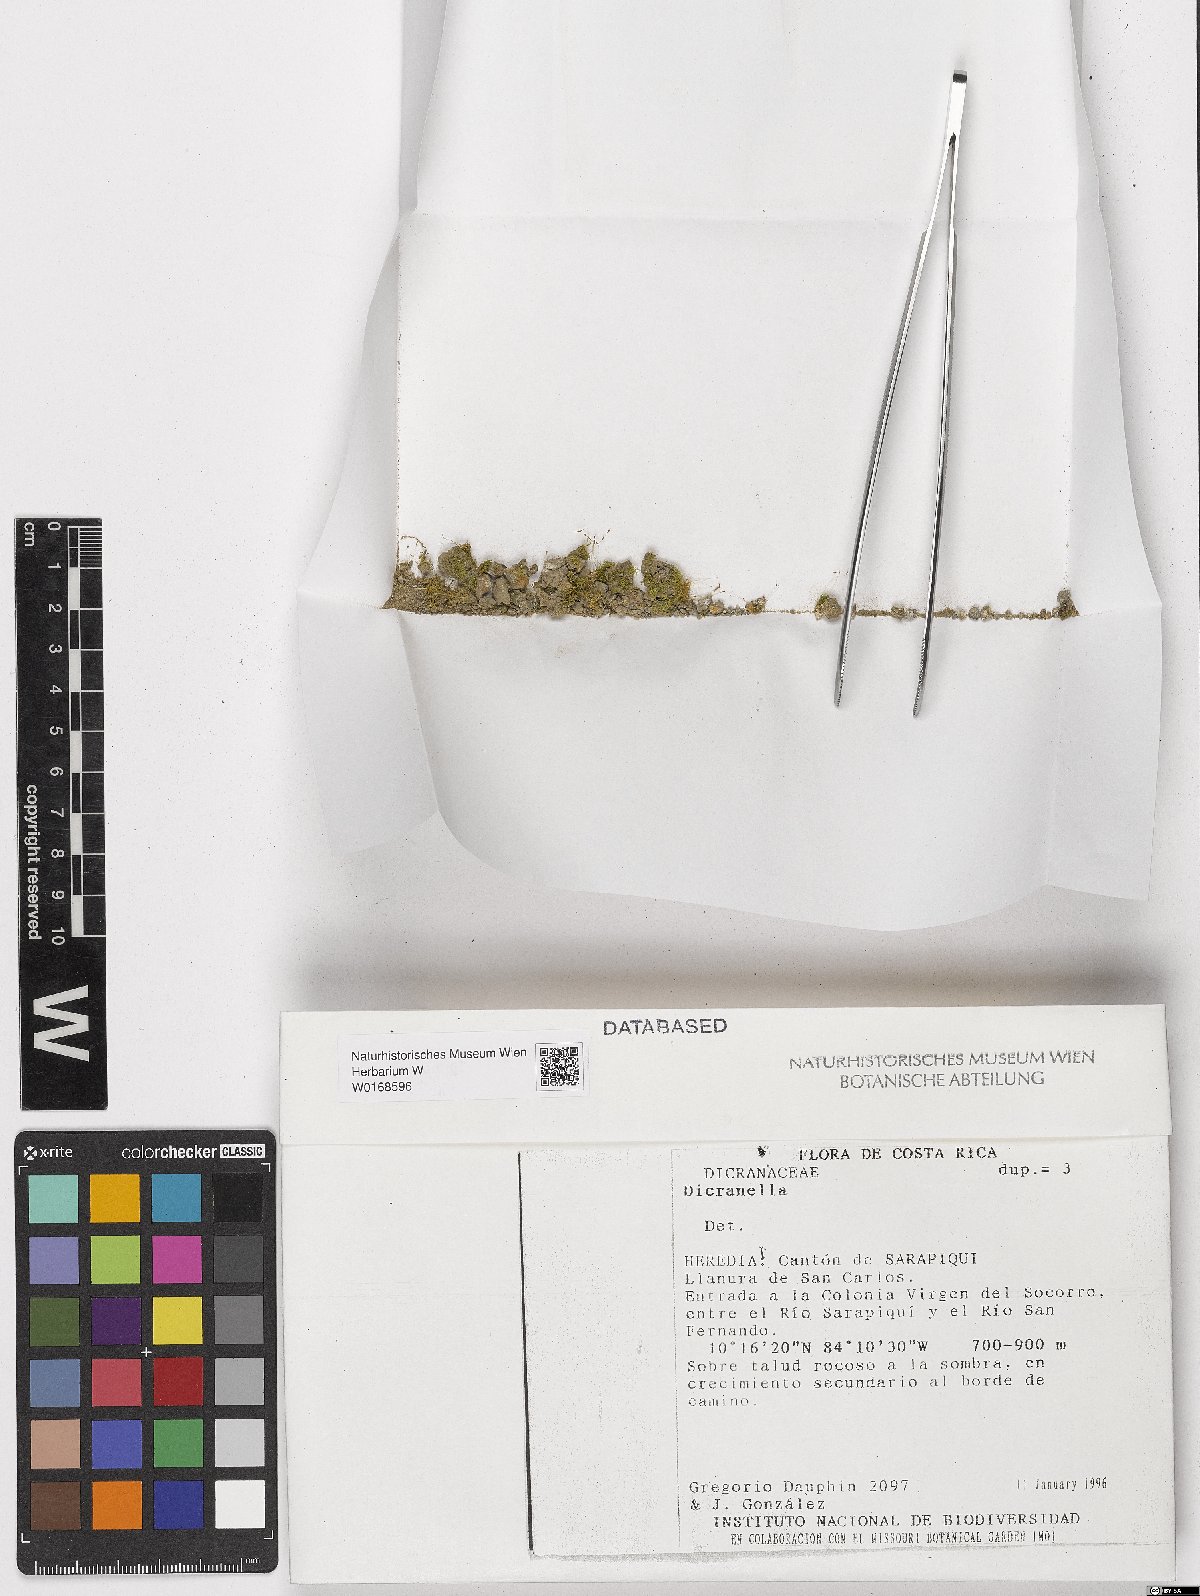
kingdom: Plantae
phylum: Bryophyta
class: Bryopsida
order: Dicranales
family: Dicranellaceae
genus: Dicranella
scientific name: Dicranella
